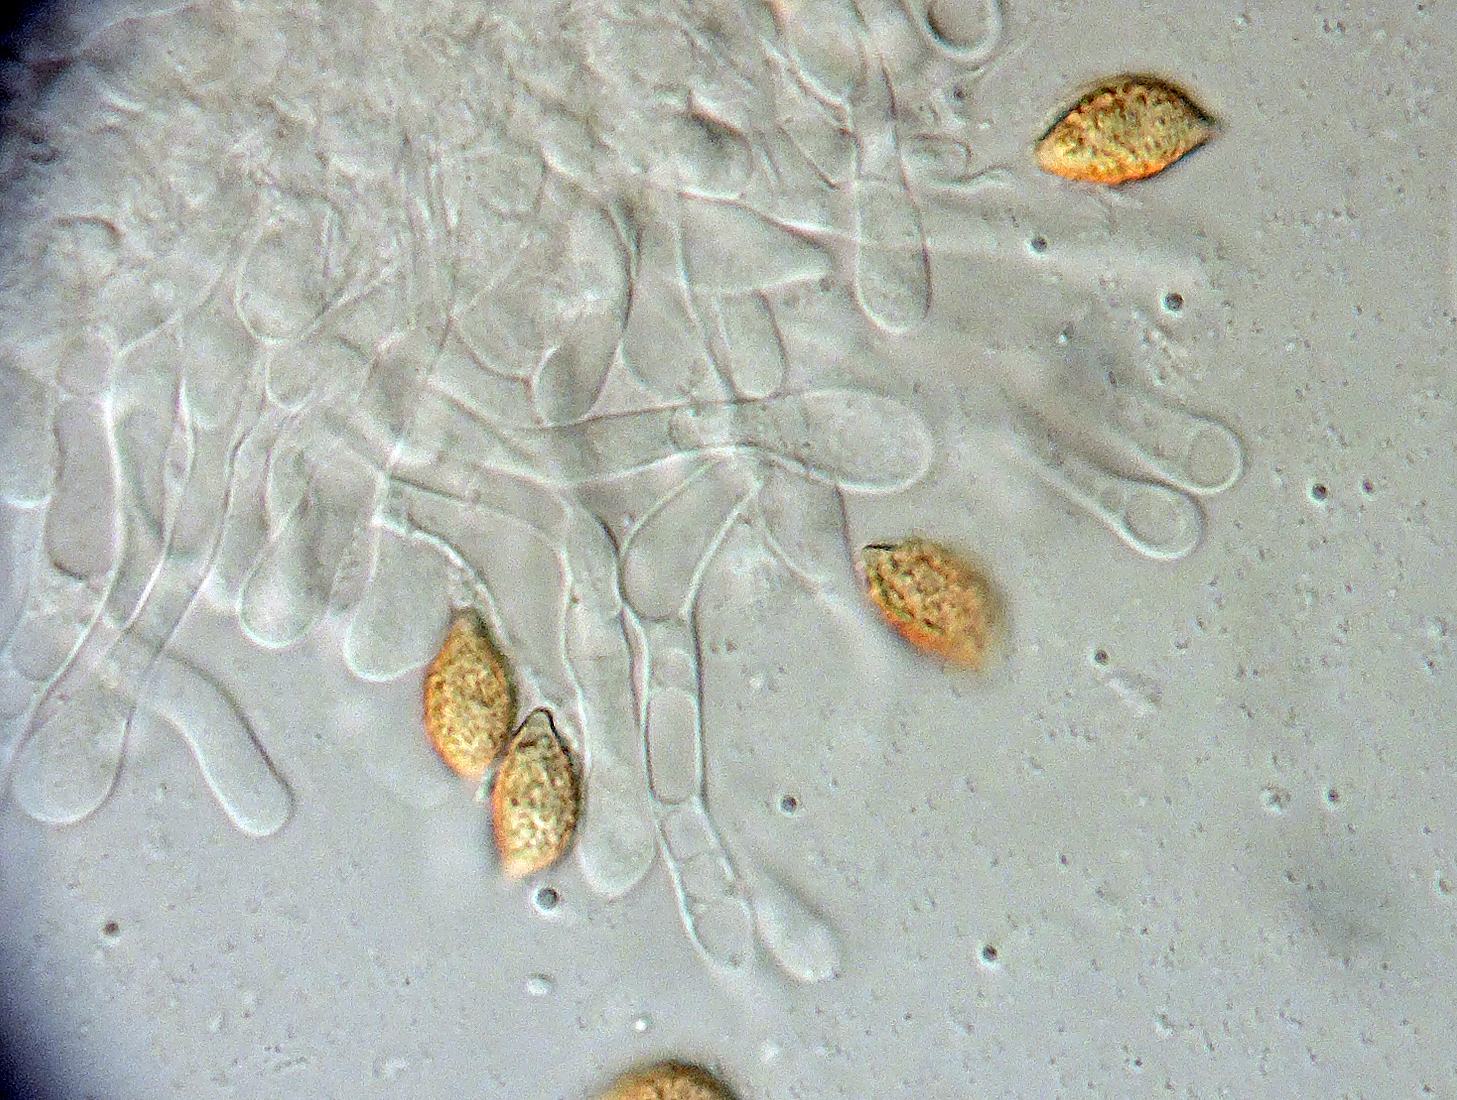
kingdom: Fungi
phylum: Basidiomycota
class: Agaricomycetes
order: Agaricales
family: Hymenogastraceae
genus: Naucoria
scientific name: Naucoria bohemica
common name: birke-knaphat
